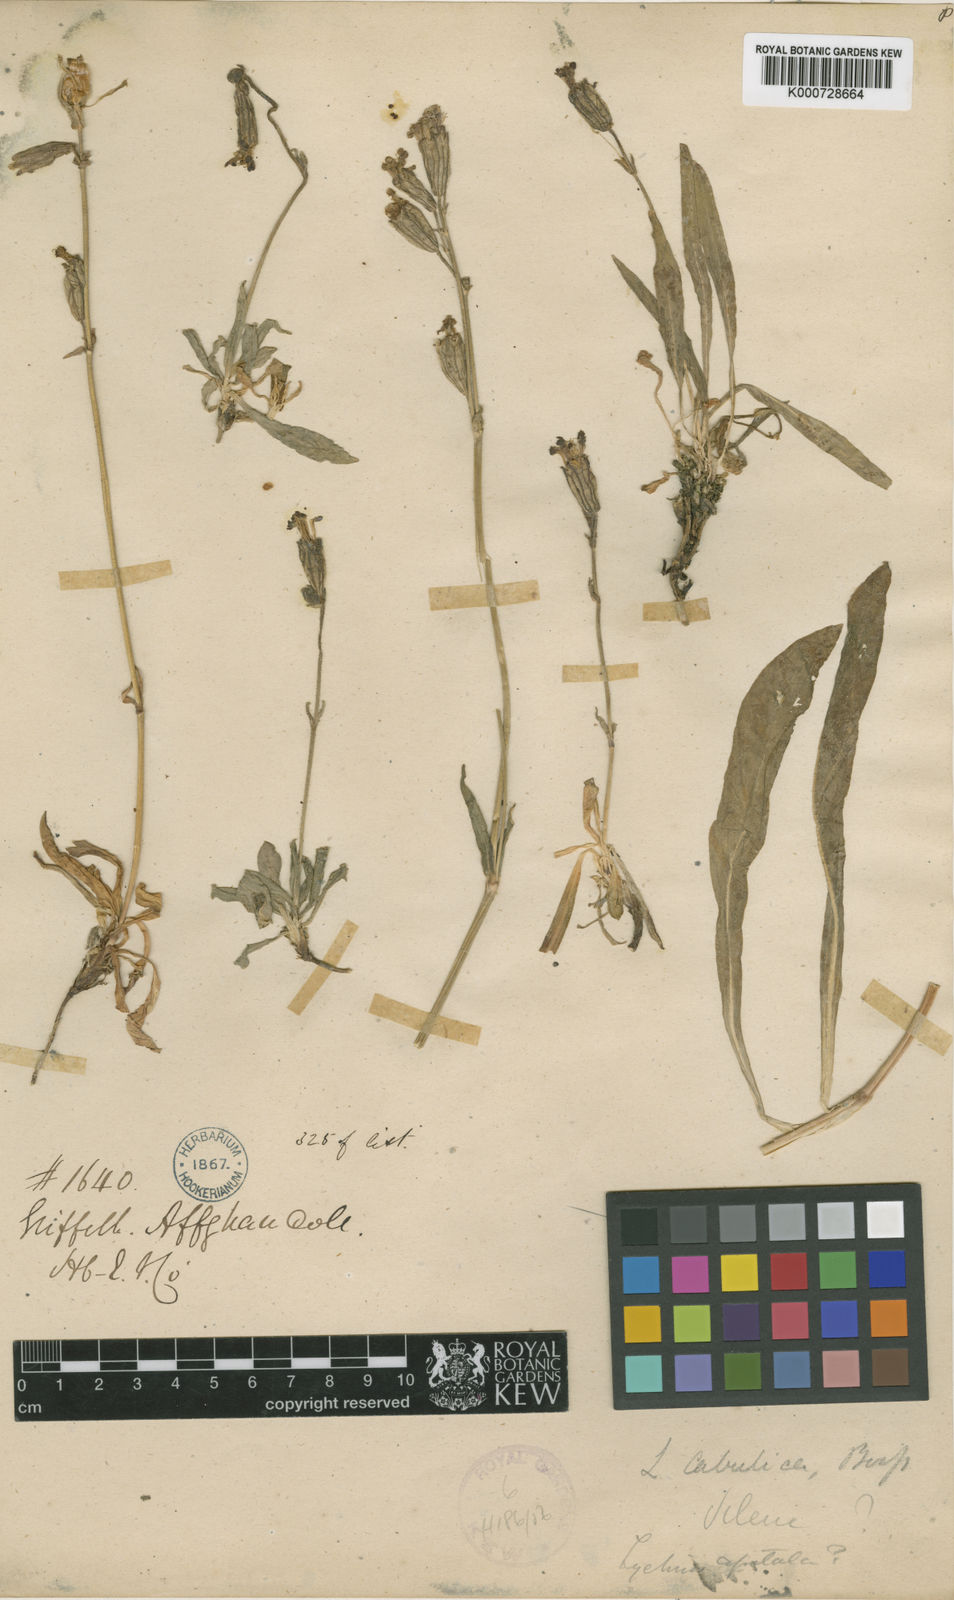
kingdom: Plantae
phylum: Tracheophyta
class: Magnoliopsida
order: Caryophyllales
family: Caryophyllaceae
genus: Silene
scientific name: Silene luciliae
